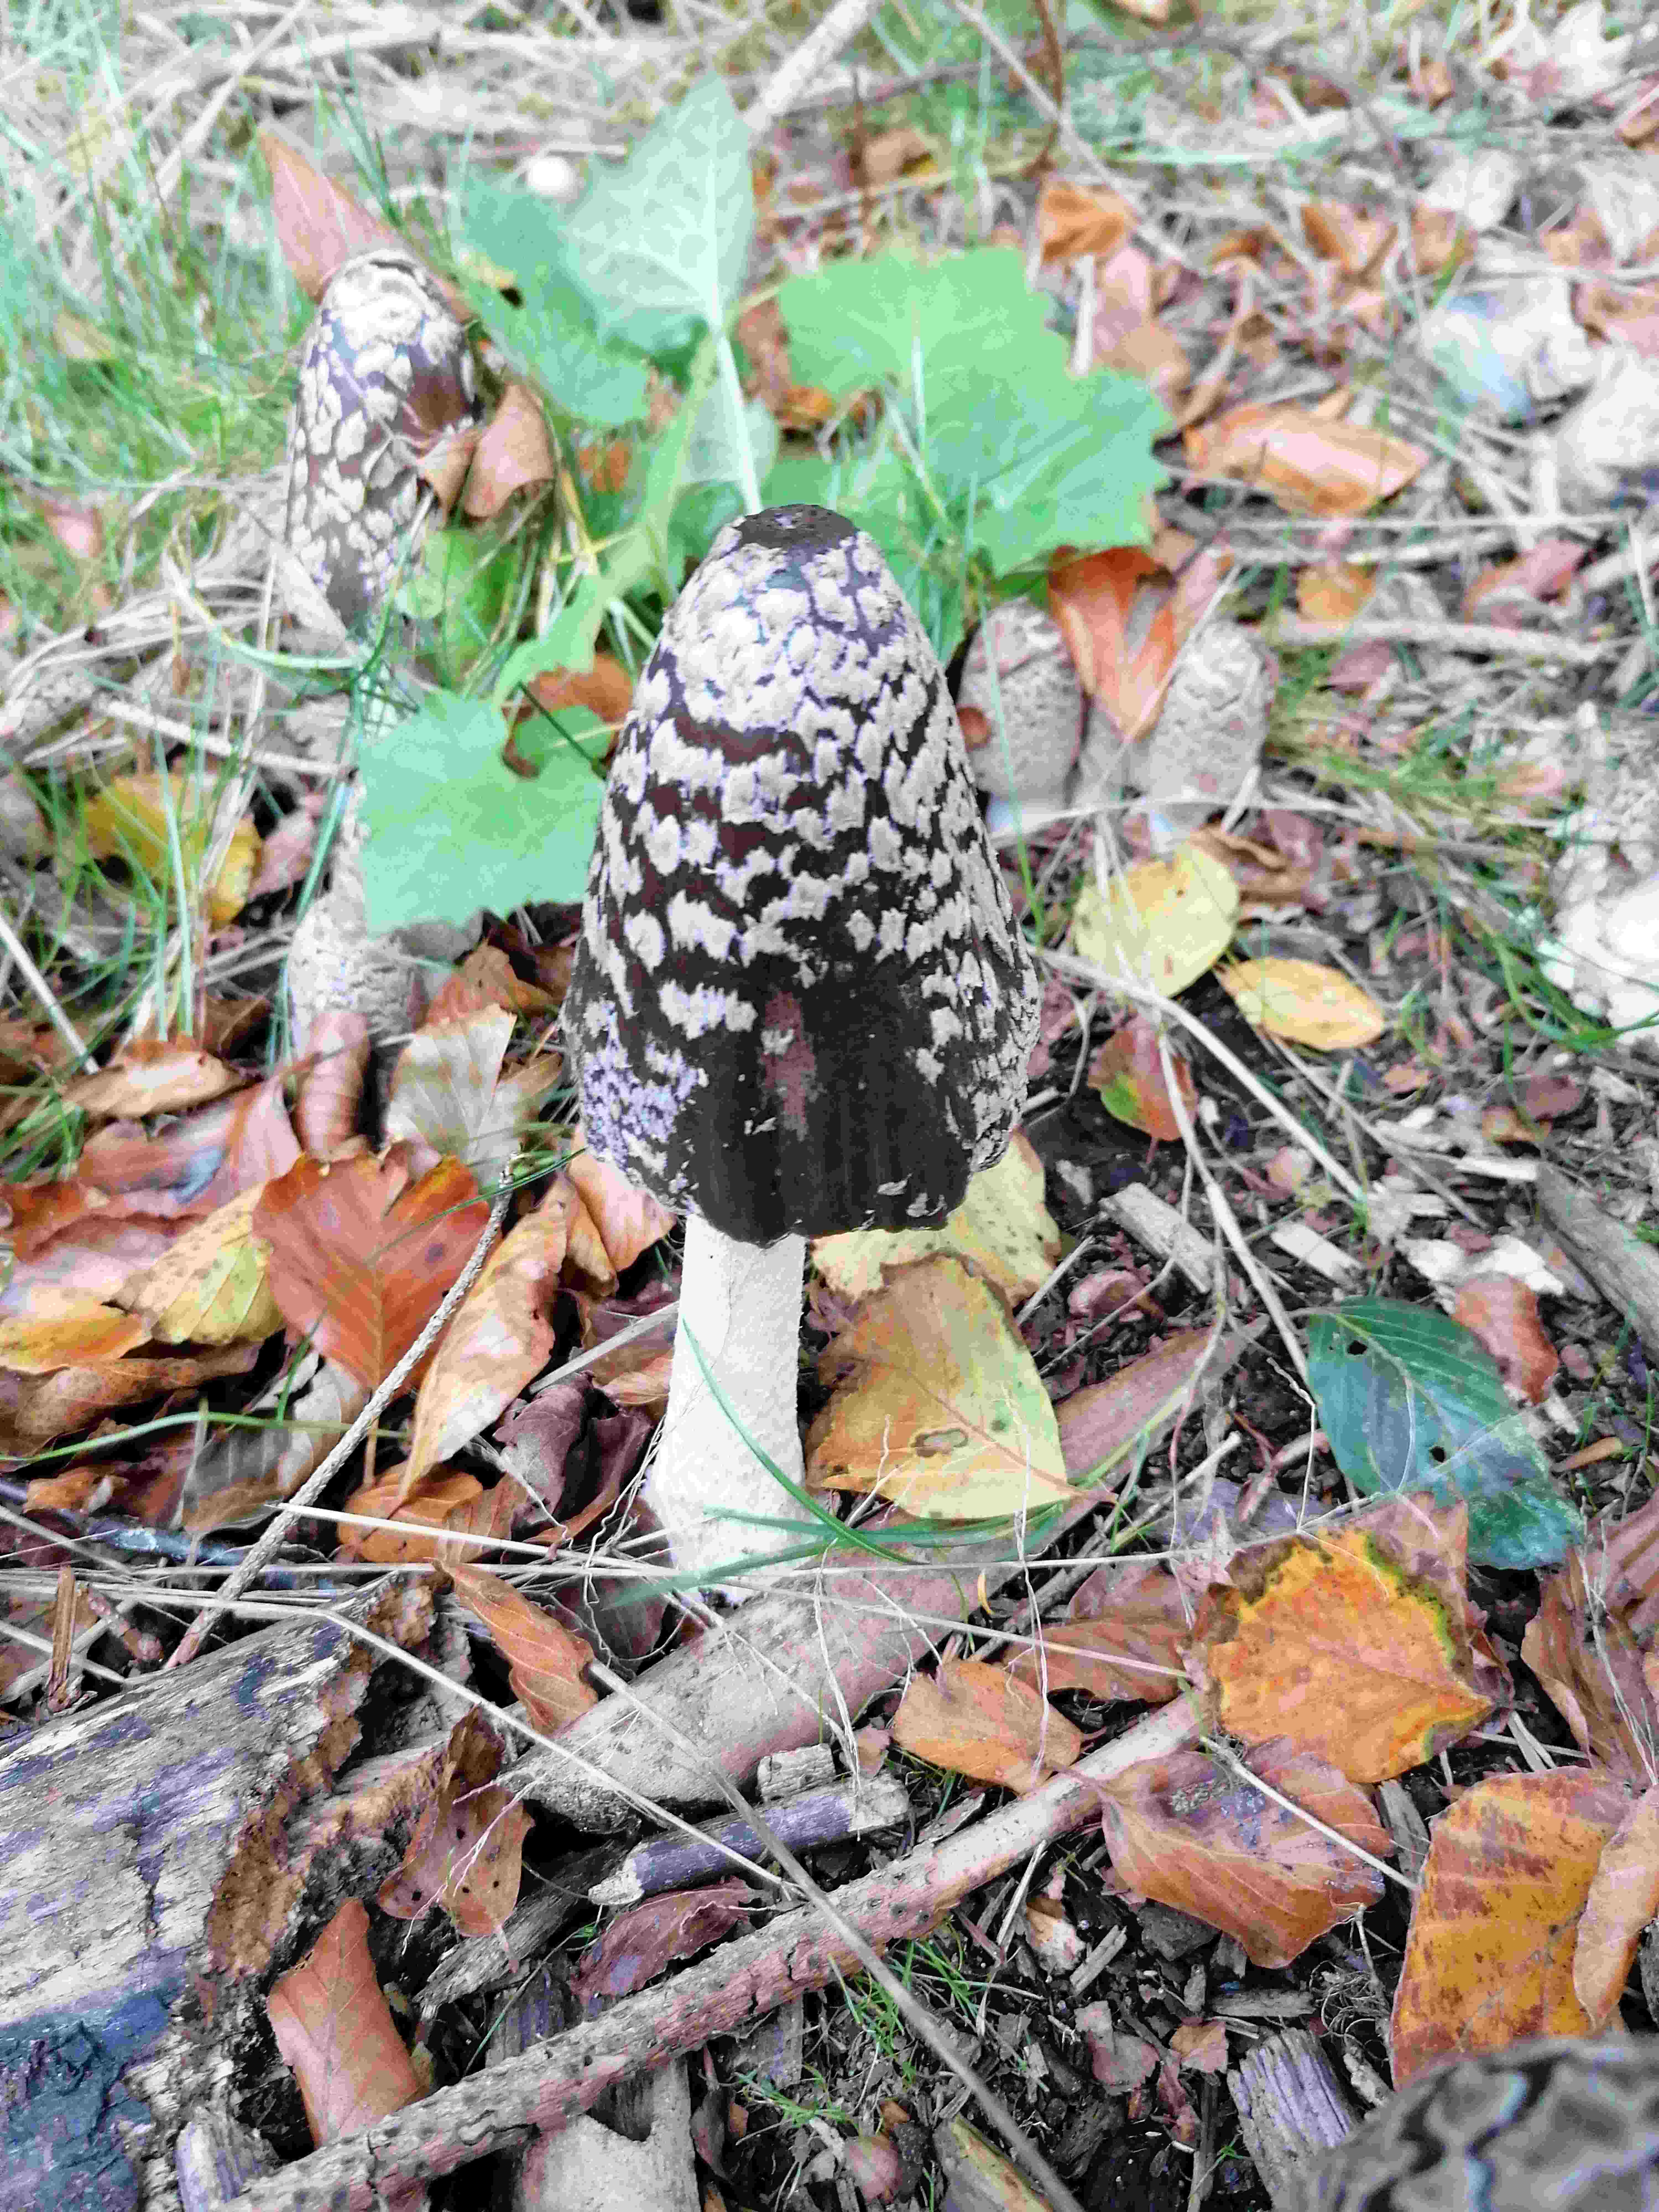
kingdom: Fungi
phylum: Basidiomycota
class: Agaricomycetes
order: Agaricales
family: Psathyrellaceae
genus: Coprinopsis
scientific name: Coprinopsis picacea
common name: skade-blækhat
